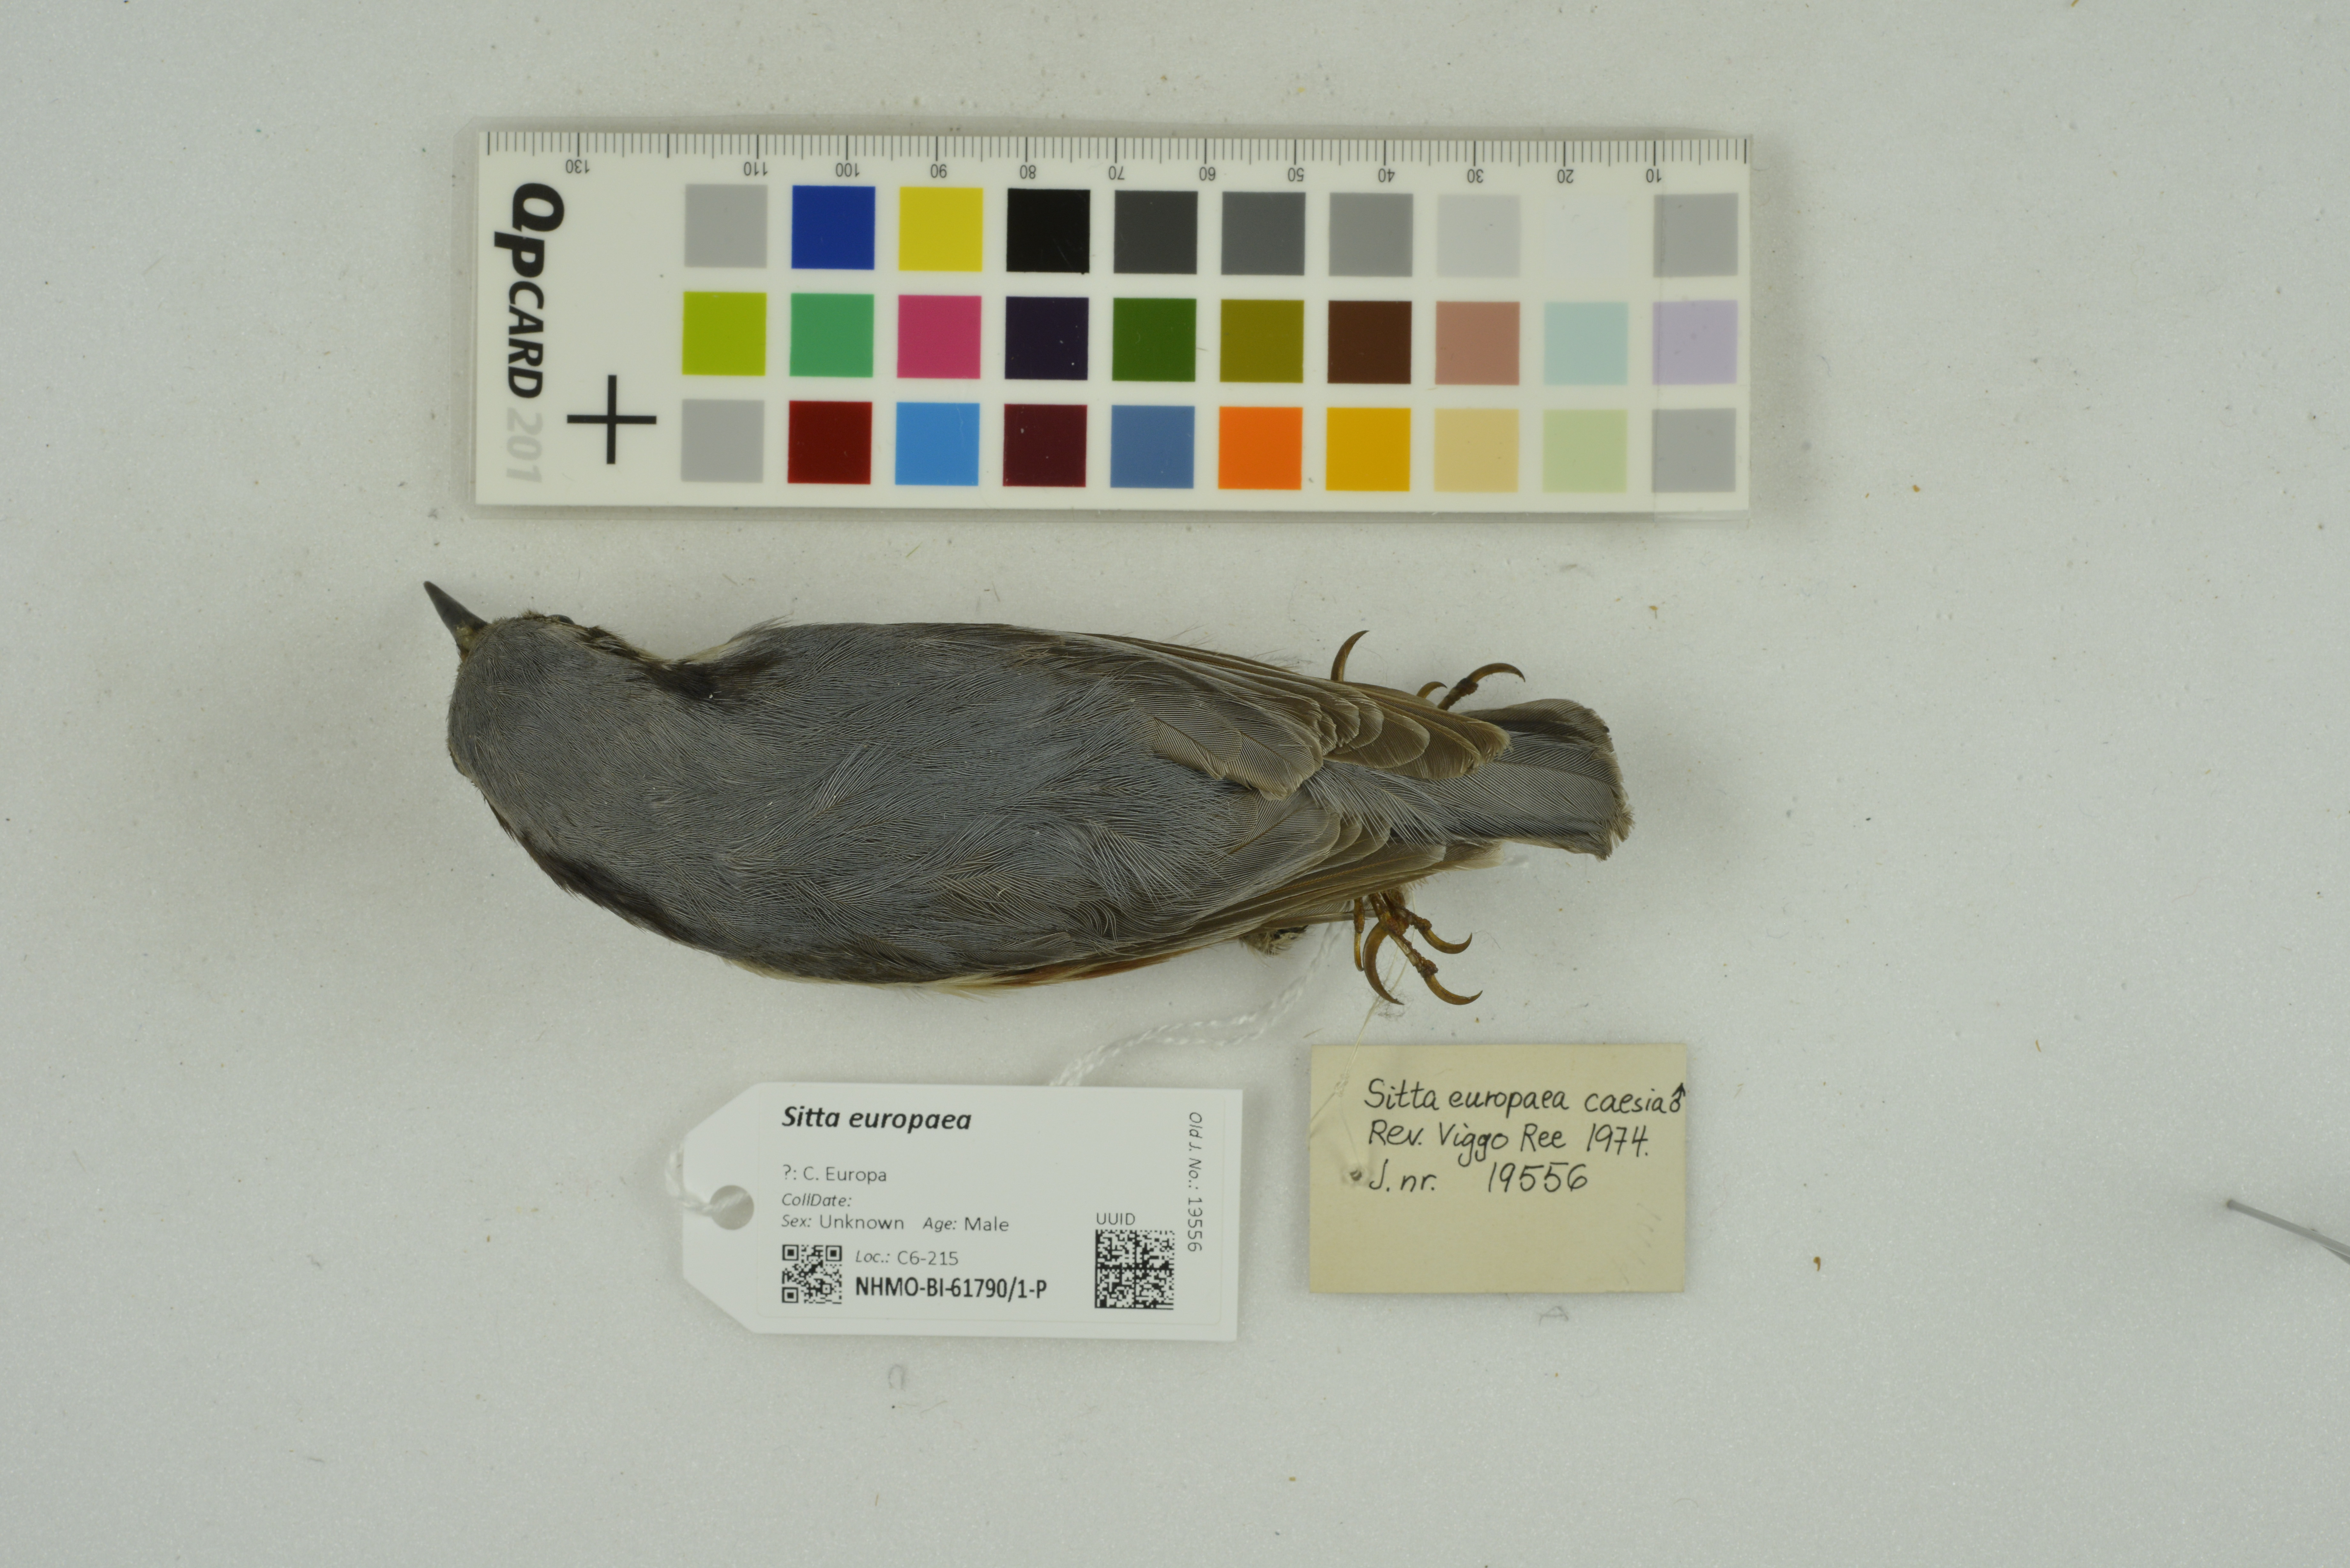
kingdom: Animalia
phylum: Chordata
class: Aves
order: Passeriformes
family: Sittidae
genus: Sitta
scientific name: Sitta europaea
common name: Eurasian nuthatch
